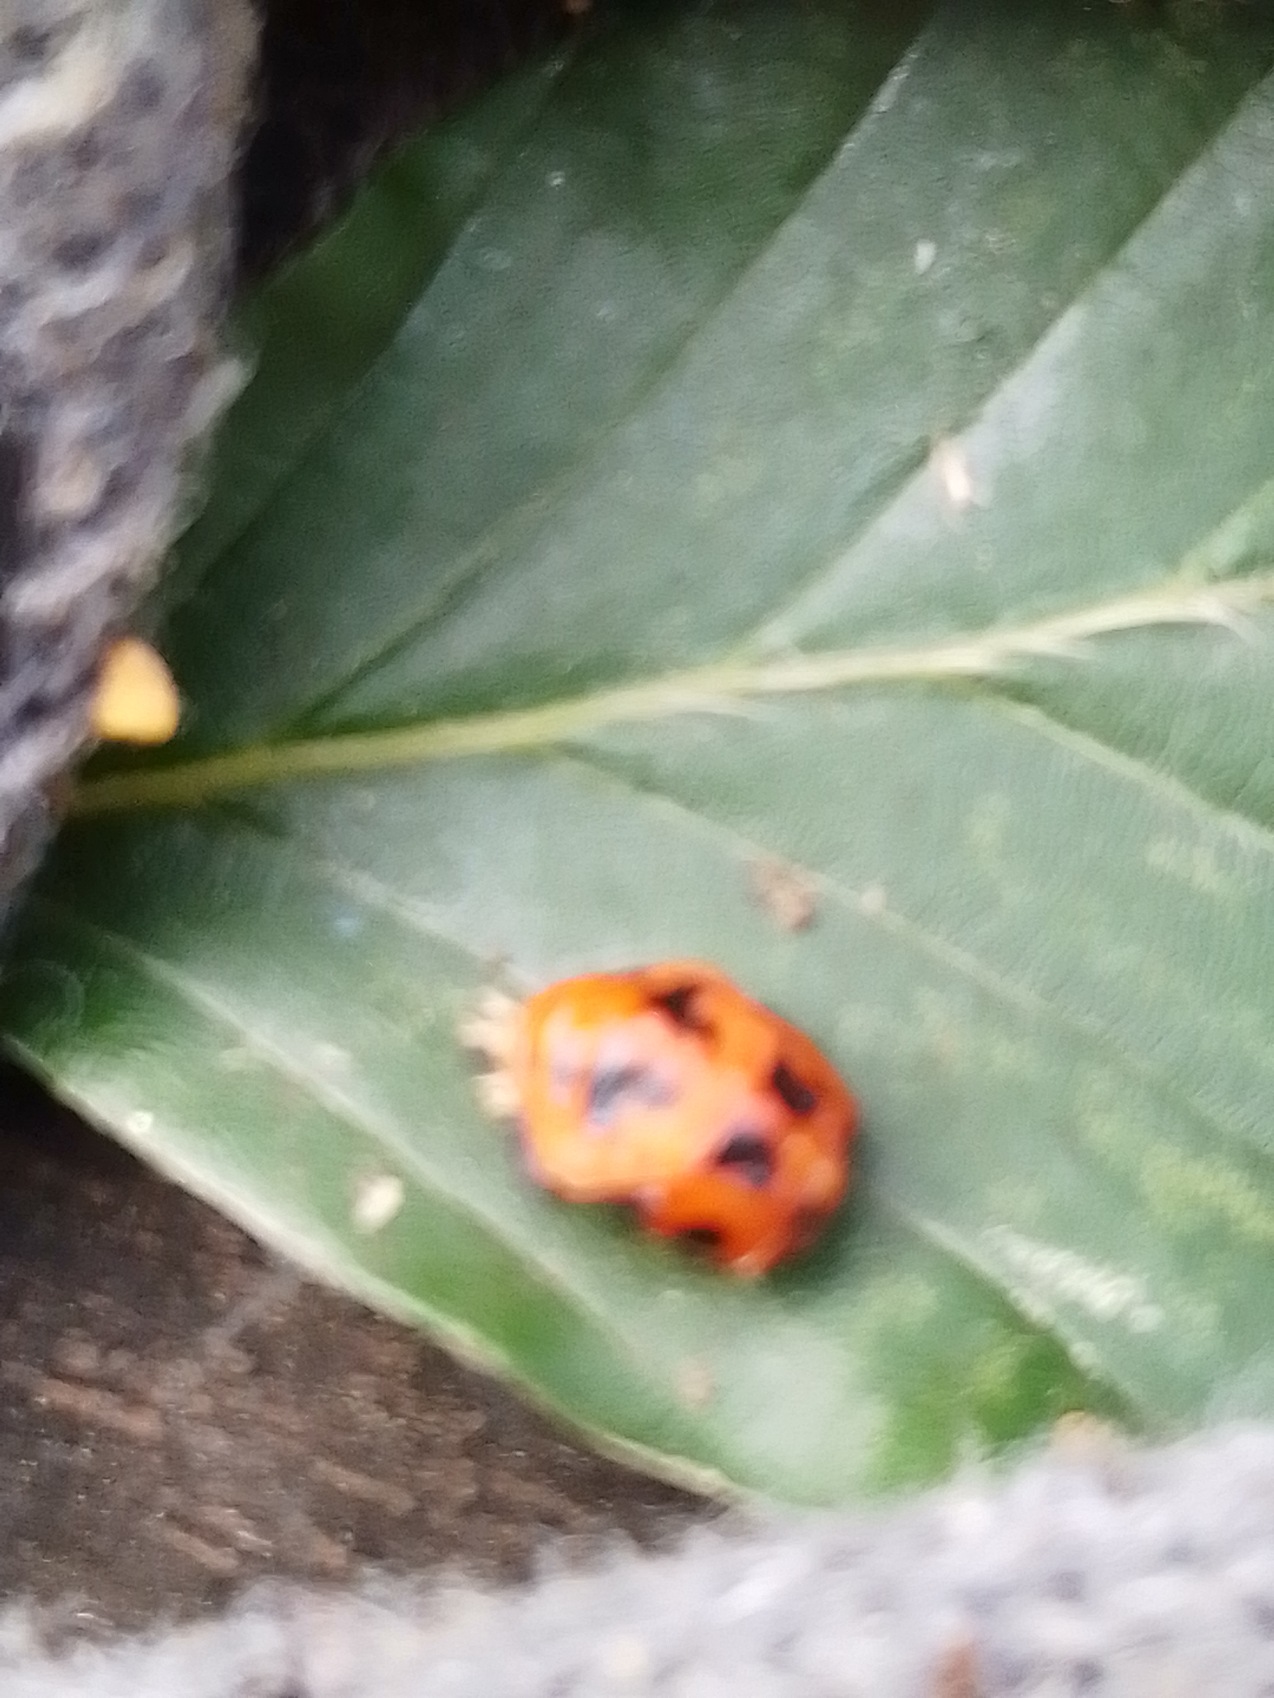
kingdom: Animalia
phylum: Arthropoda
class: Insecta
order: Coleoptera
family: Coccinellidae
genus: Harmonia
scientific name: Harmonia axyridis
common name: Harlekinmariehøne
